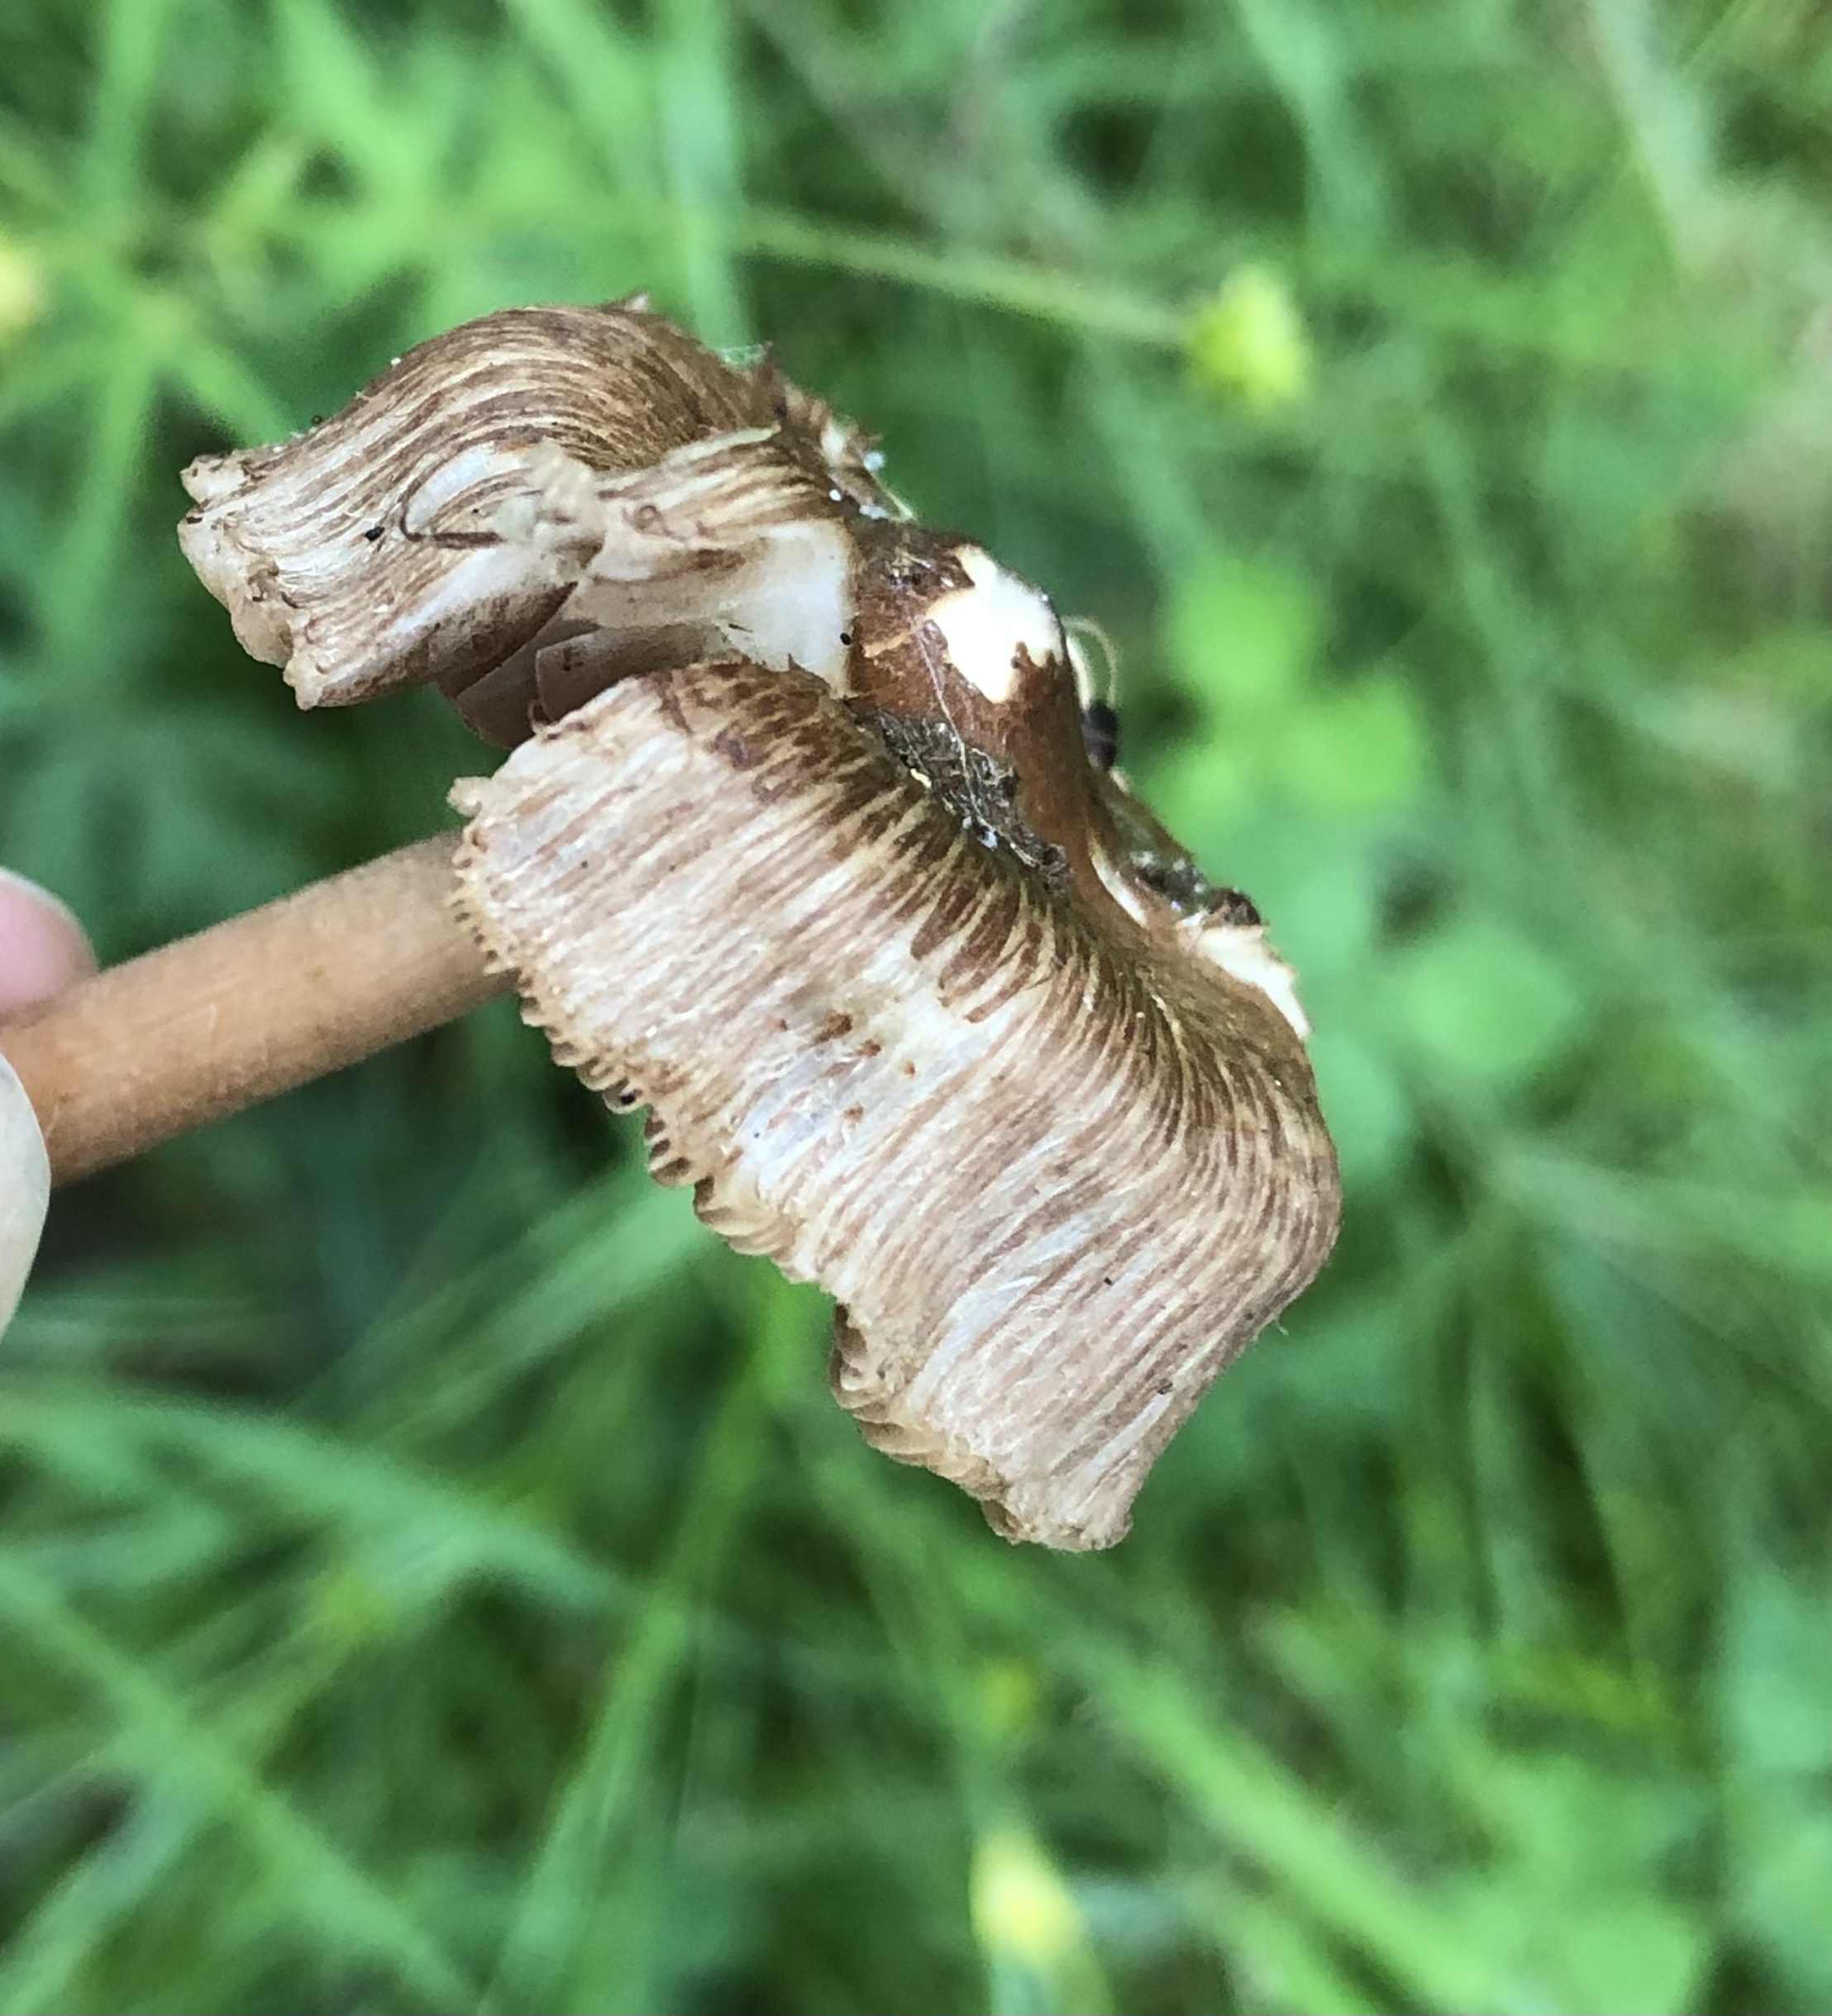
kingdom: Fungi
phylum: Basidiomycota
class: Agaricomycetes
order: Agaricales
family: Inocybaceae
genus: Inocybe
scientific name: Inocybe
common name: trævlhat
